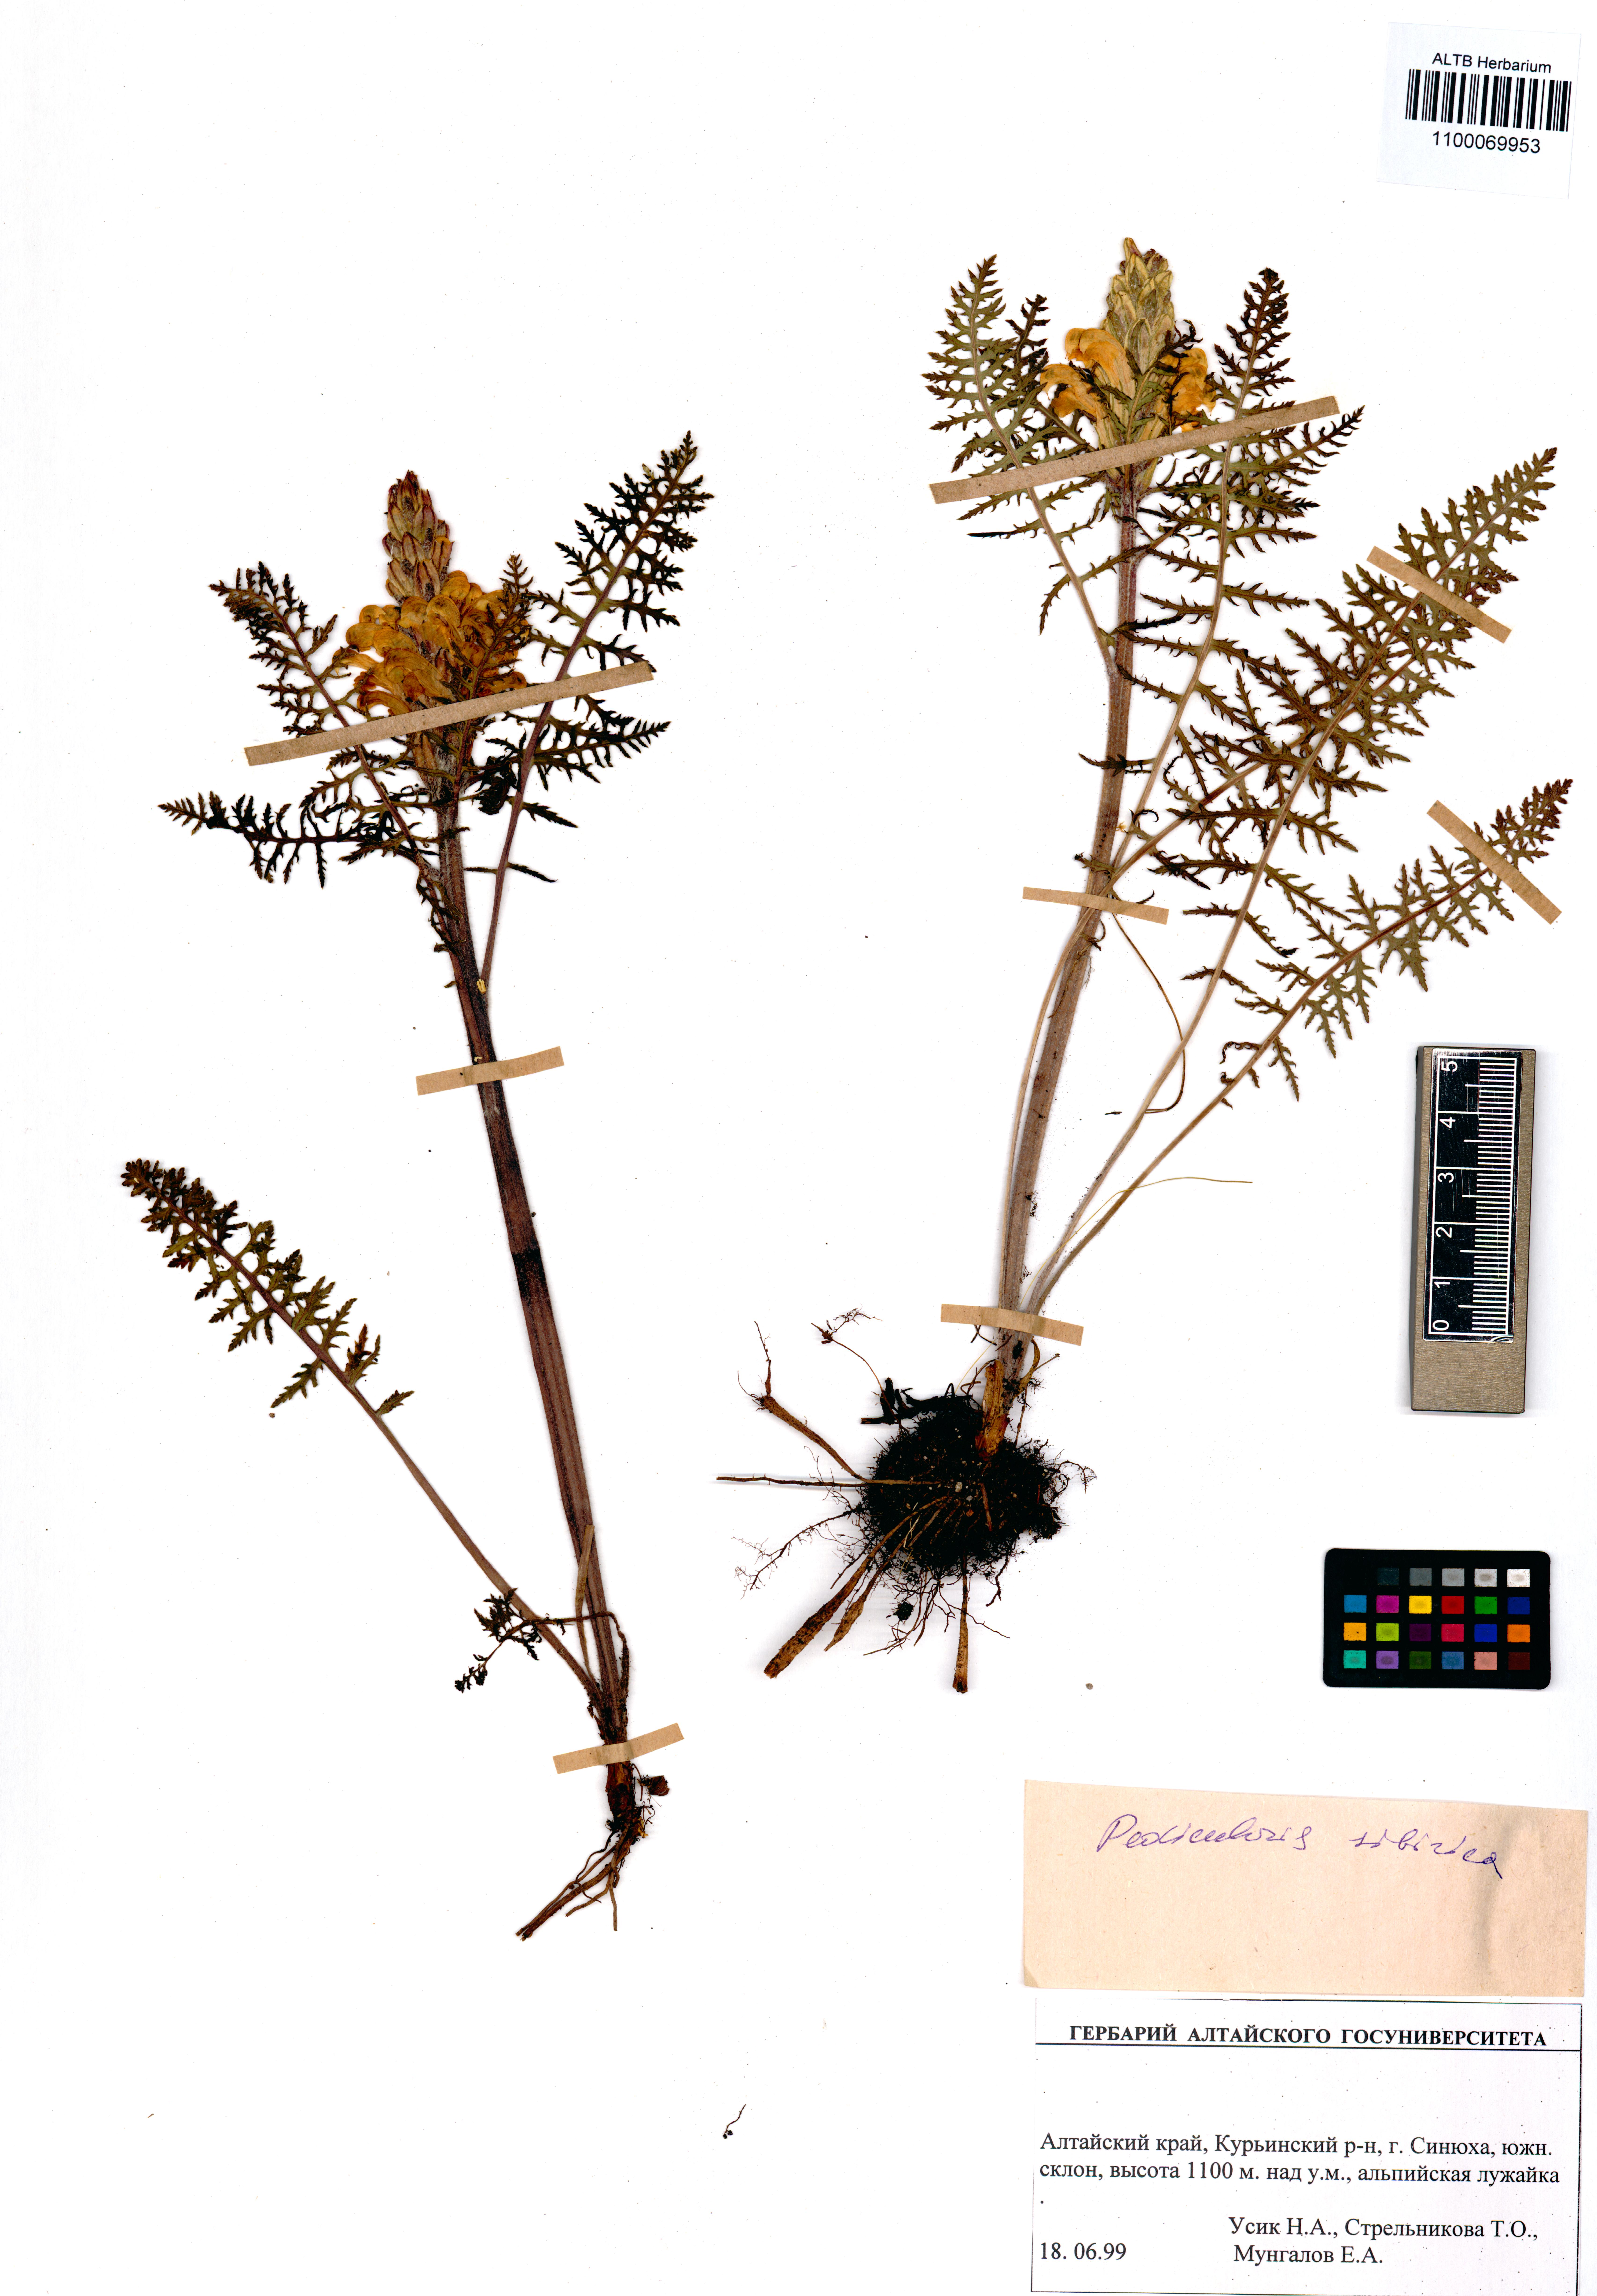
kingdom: Plantae
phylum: Tracheophyta
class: Magnoliopsida
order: Lamiales
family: Orobanchaceae
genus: Pedicularis
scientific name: Pedicularis sibirica
